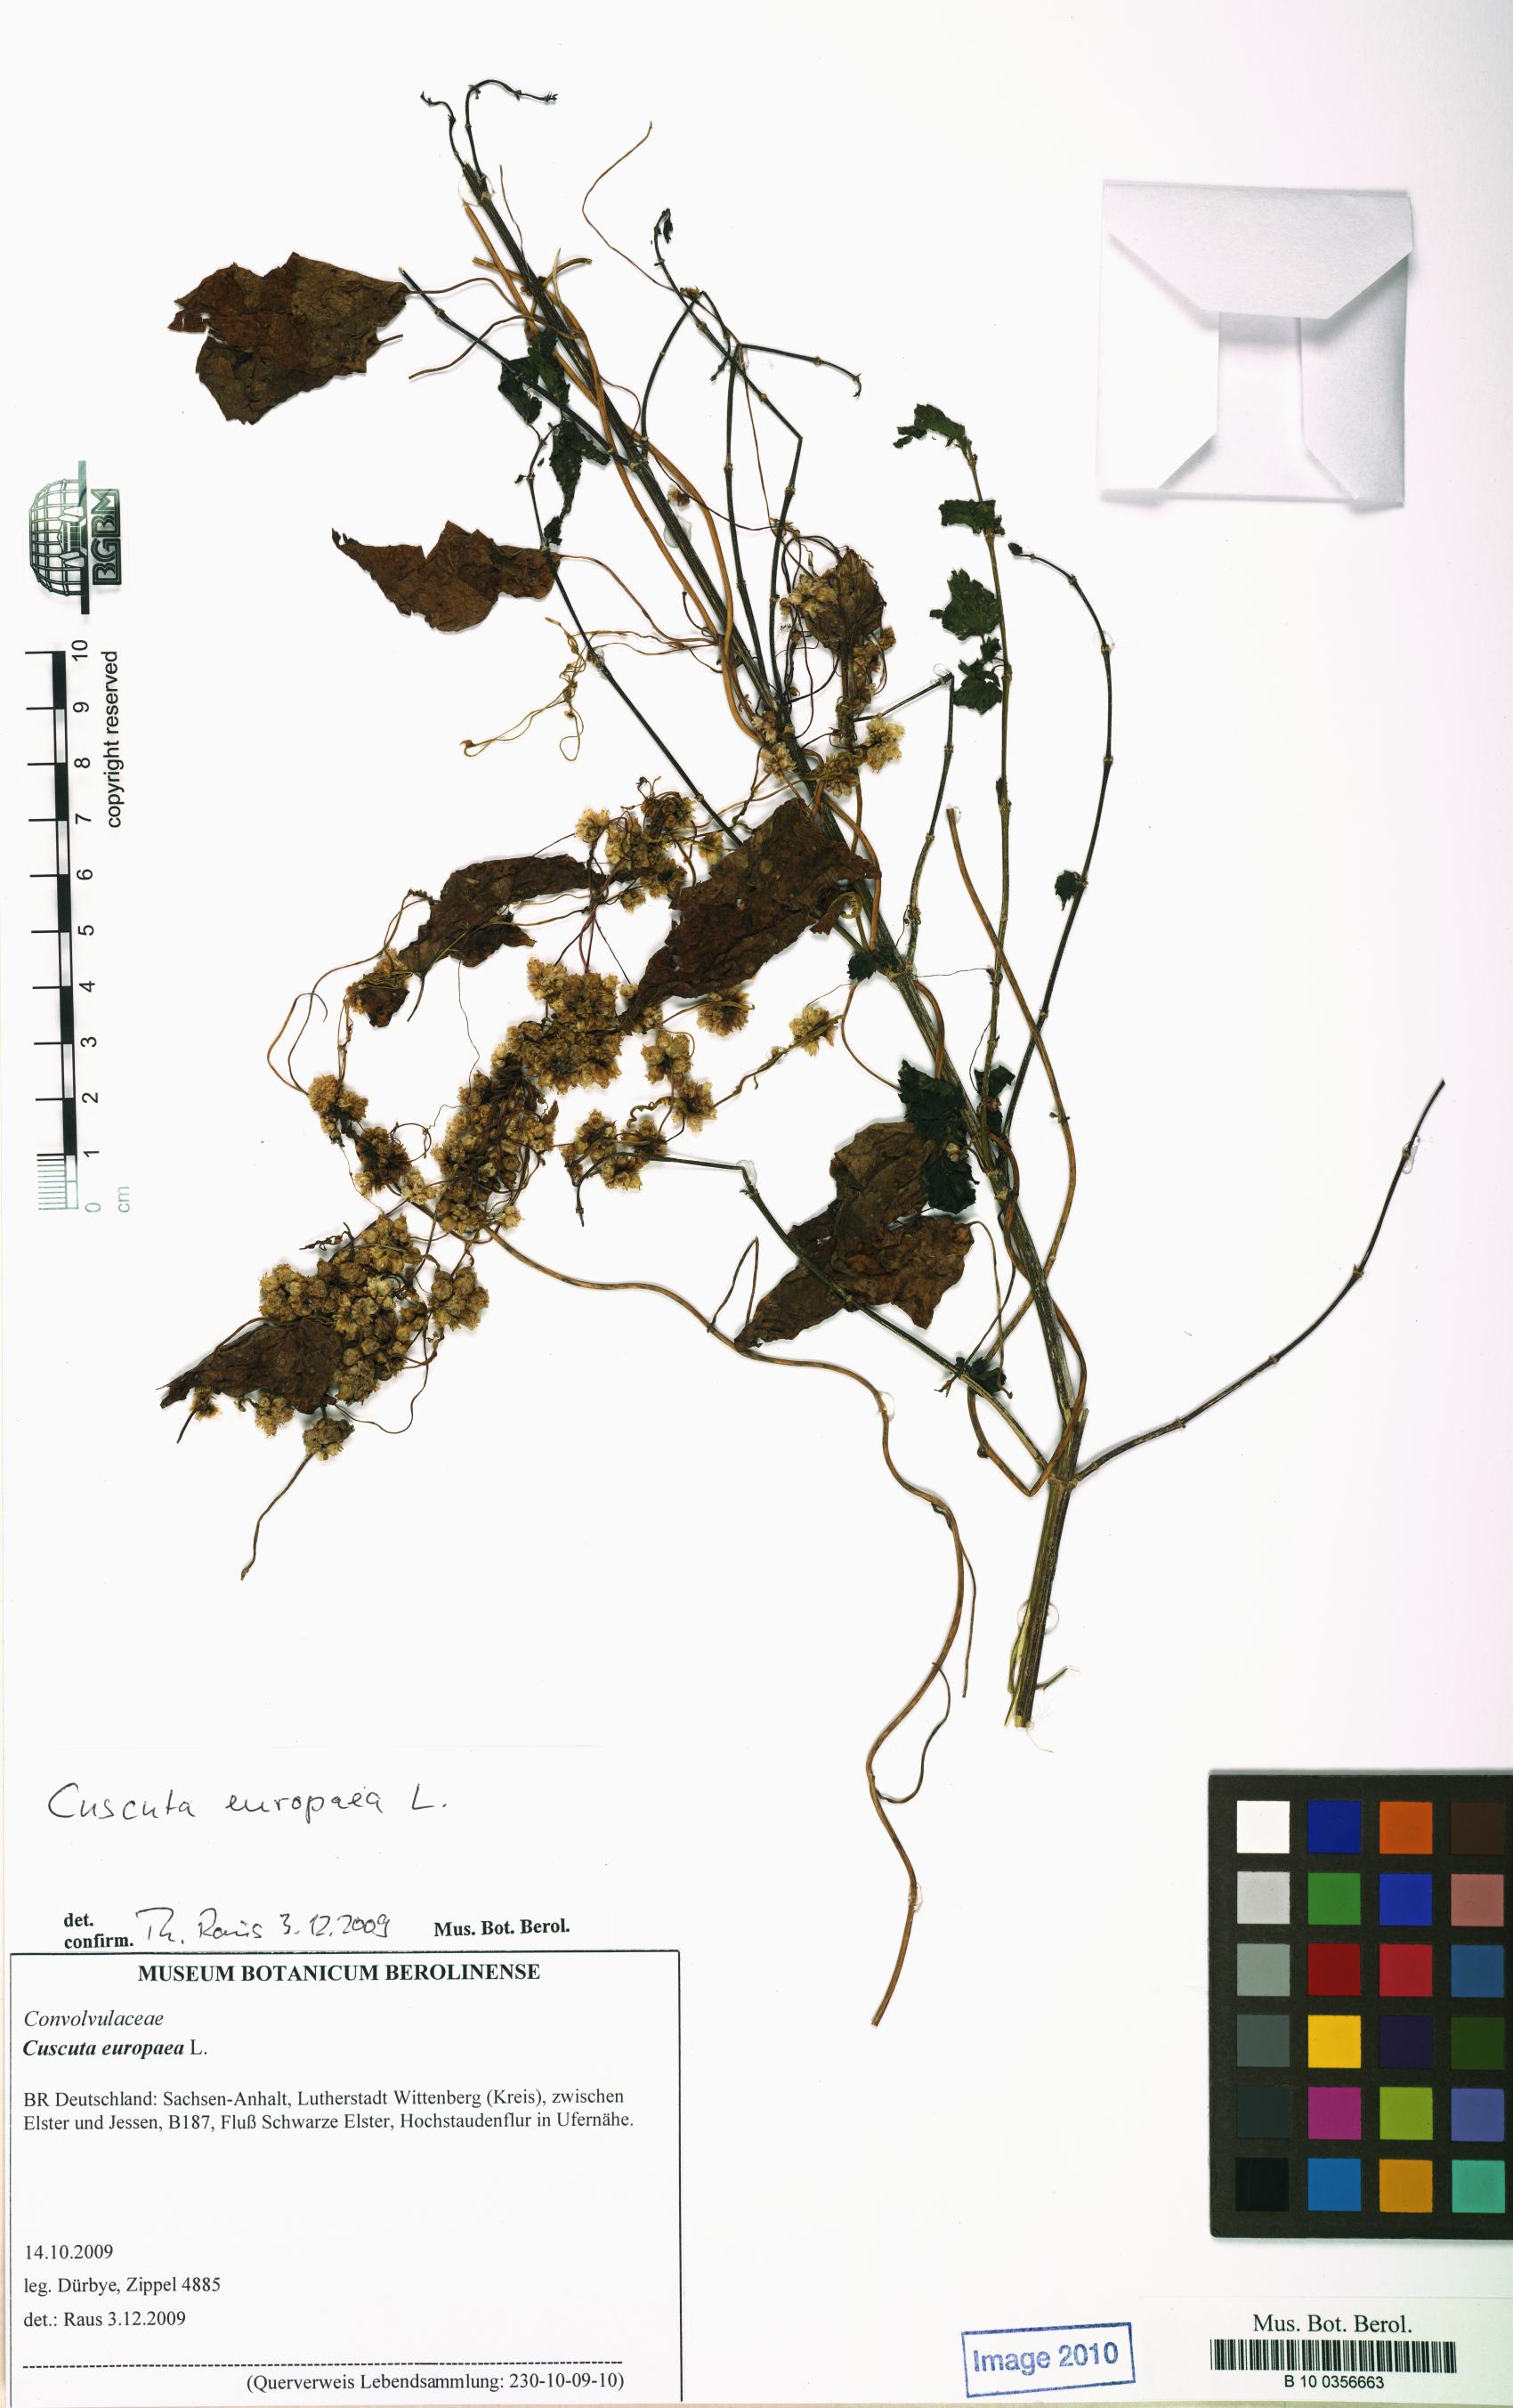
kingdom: Plantae
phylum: Tracheophyta
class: Magnoliopsida
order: Solanales
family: Convolvulaceae
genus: Cuscuta
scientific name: Cuscuta europaea
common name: Greater dodder
